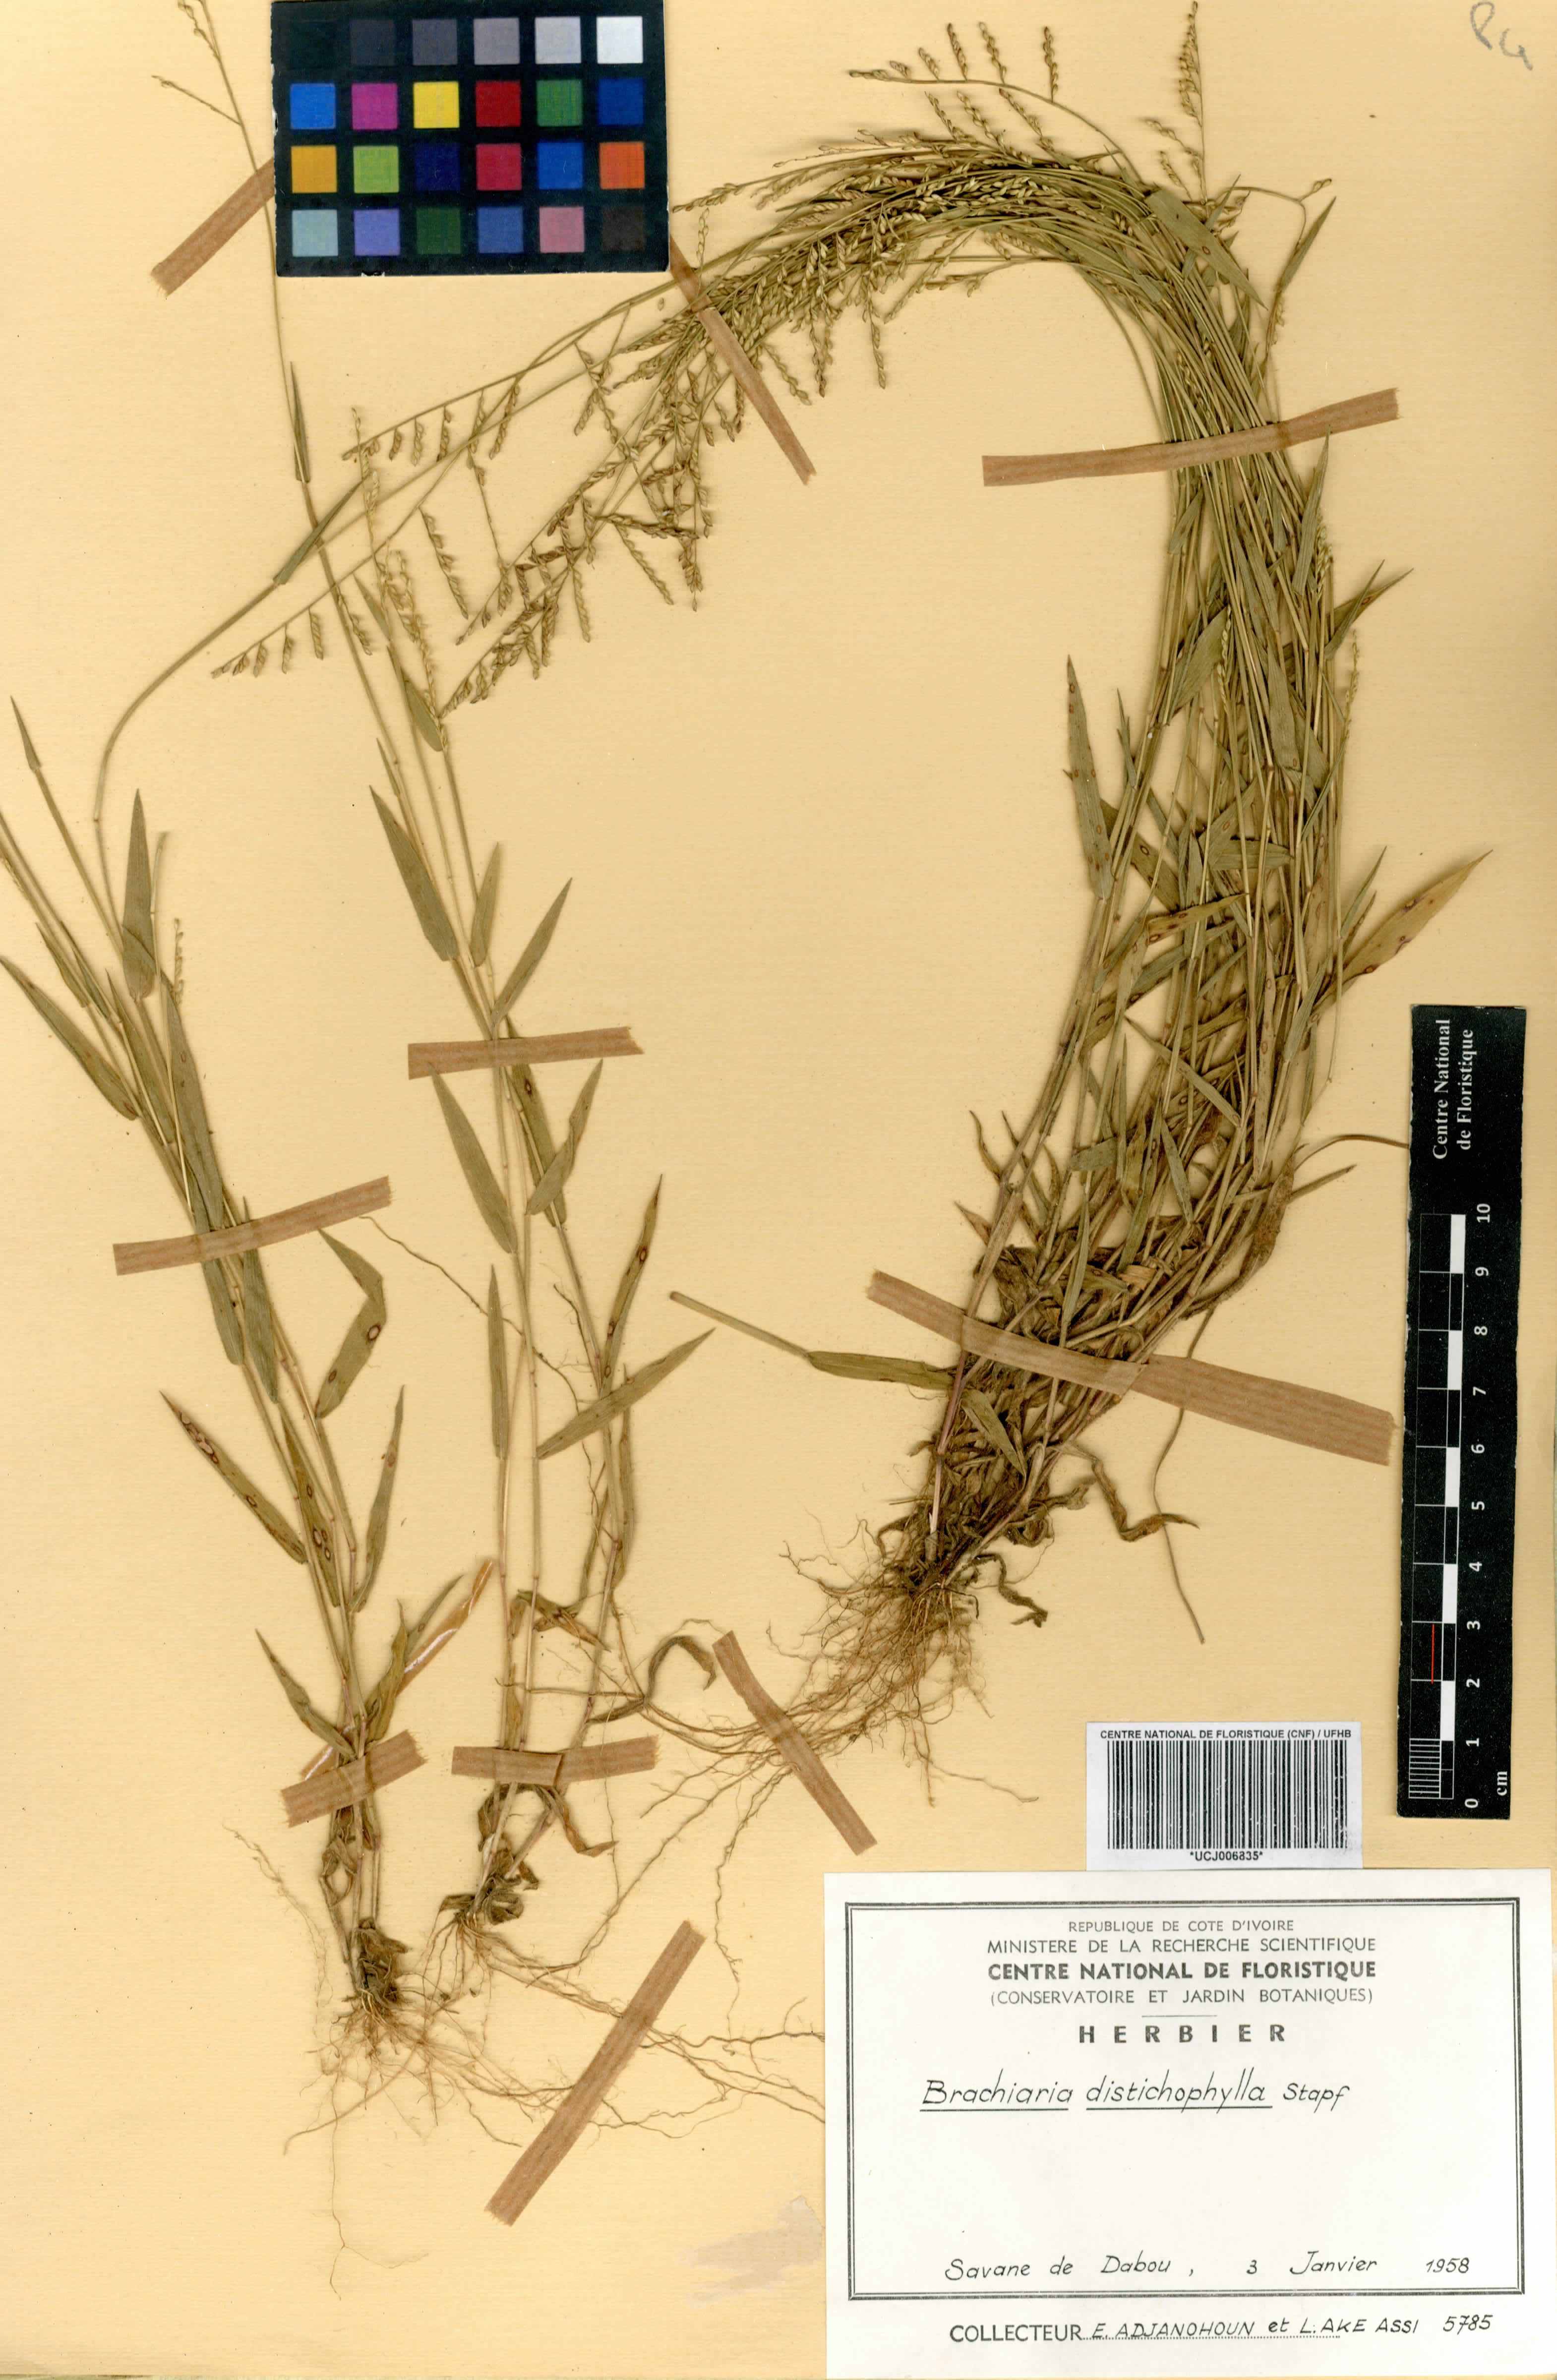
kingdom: Plantae
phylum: Tracheophyta
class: Liliopsida
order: Poales
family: Poaceae
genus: Urochloa
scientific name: Urochloa villosa
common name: Hairy signalgrass
